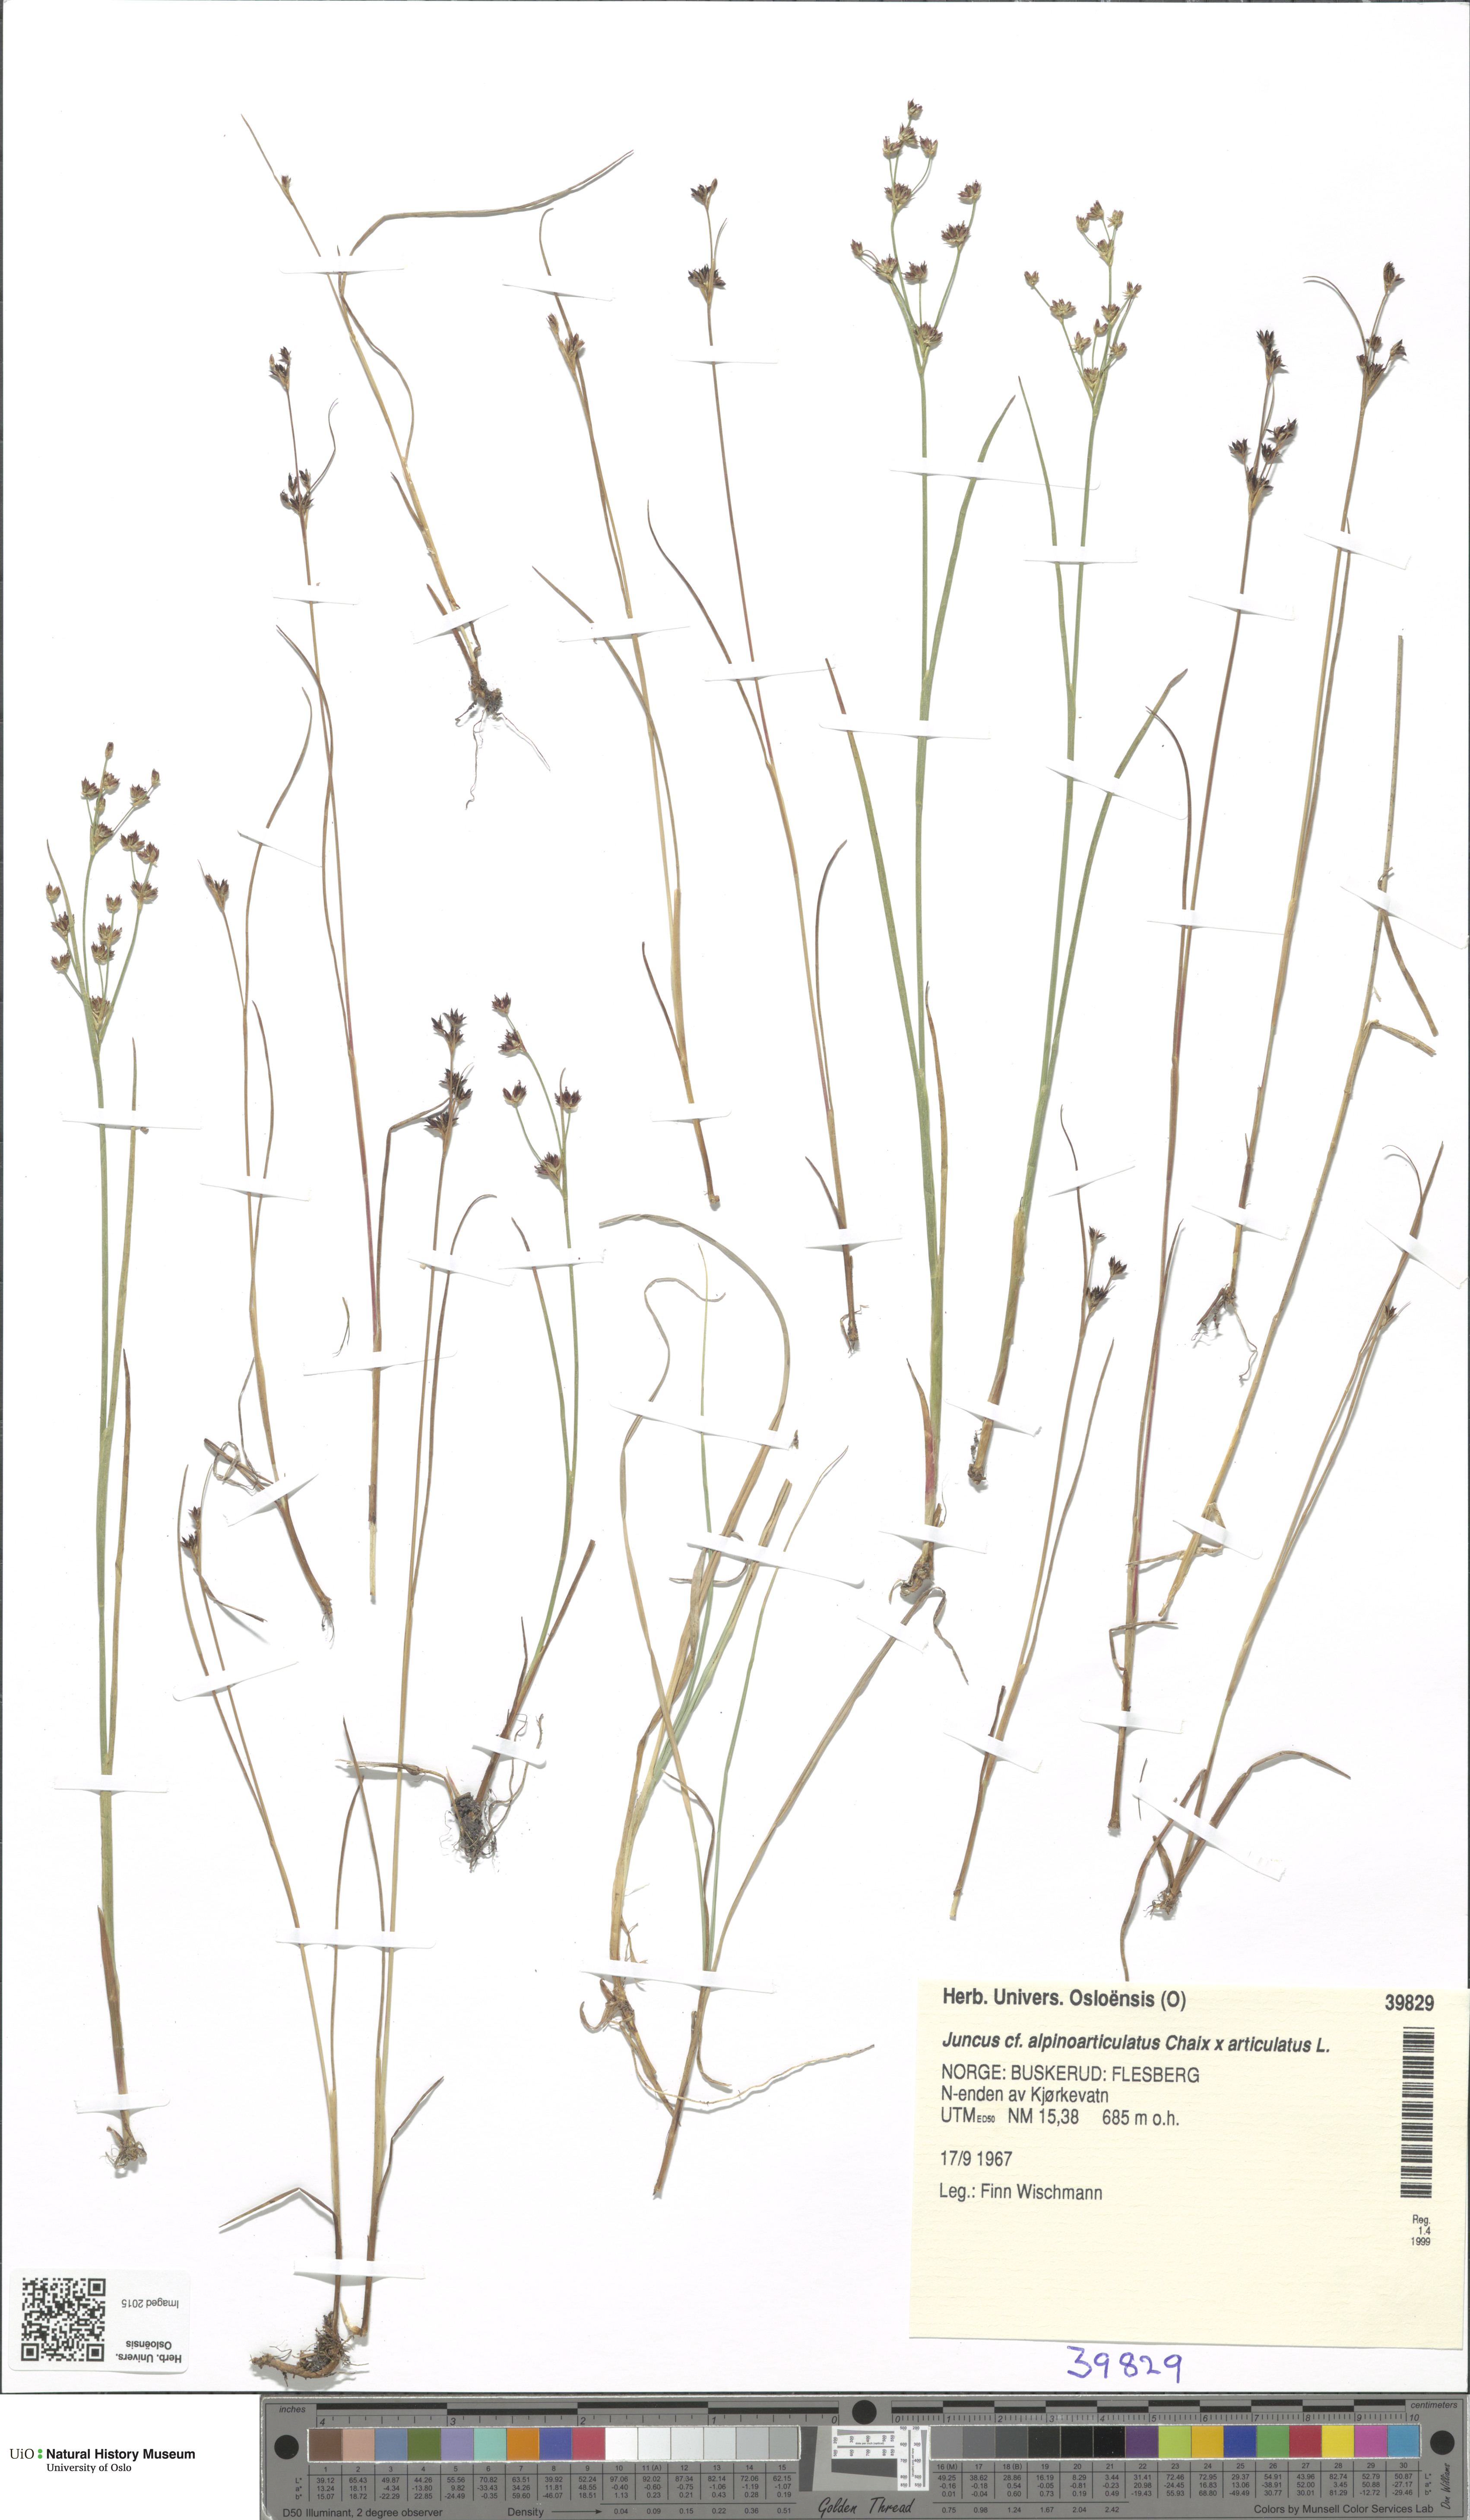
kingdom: Plantae
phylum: Tracheophyta
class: Liliopsida
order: Poales
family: Juncaceae
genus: Juncus
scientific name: Juncus
